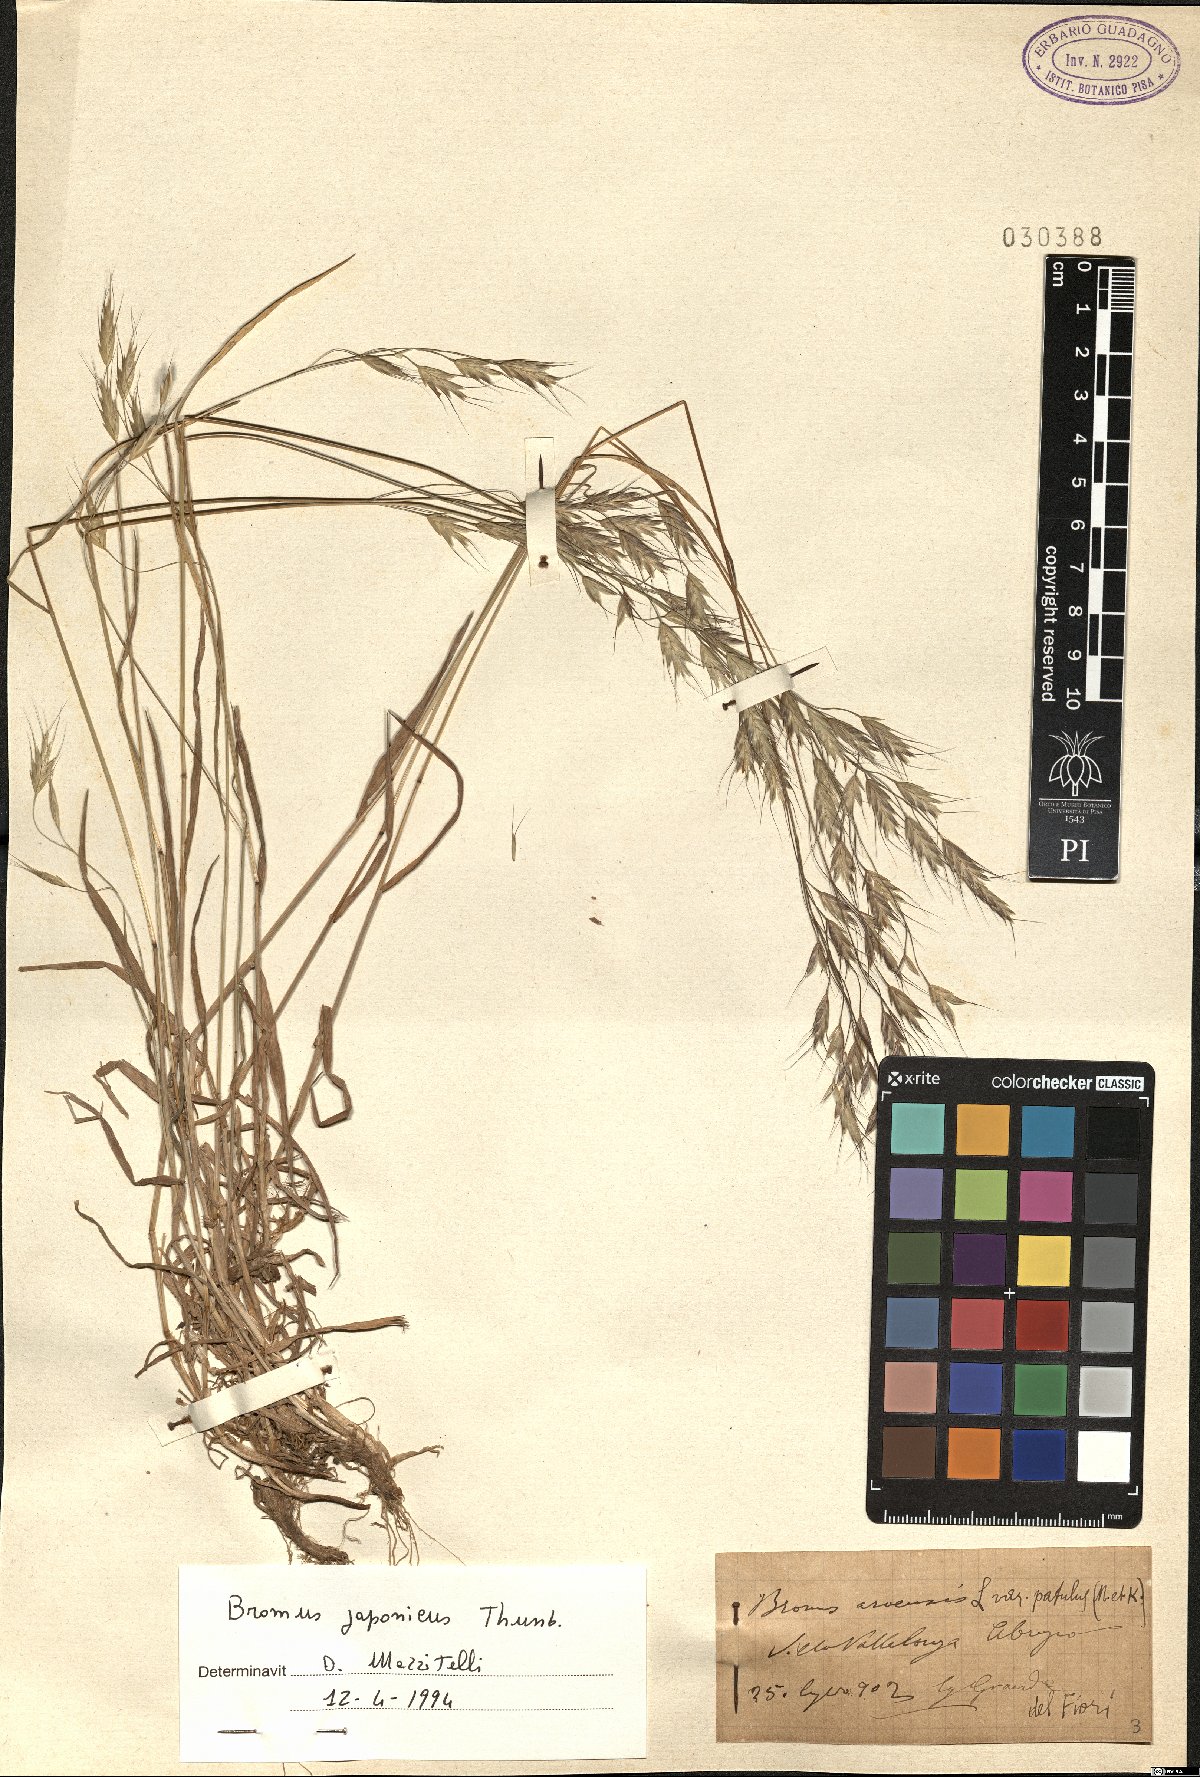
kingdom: Plantae
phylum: Tracheophyta
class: Liliopsida
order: Poales
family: Poaceae
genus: Bromus
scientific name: Bromus japonicus
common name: Japanese brome
